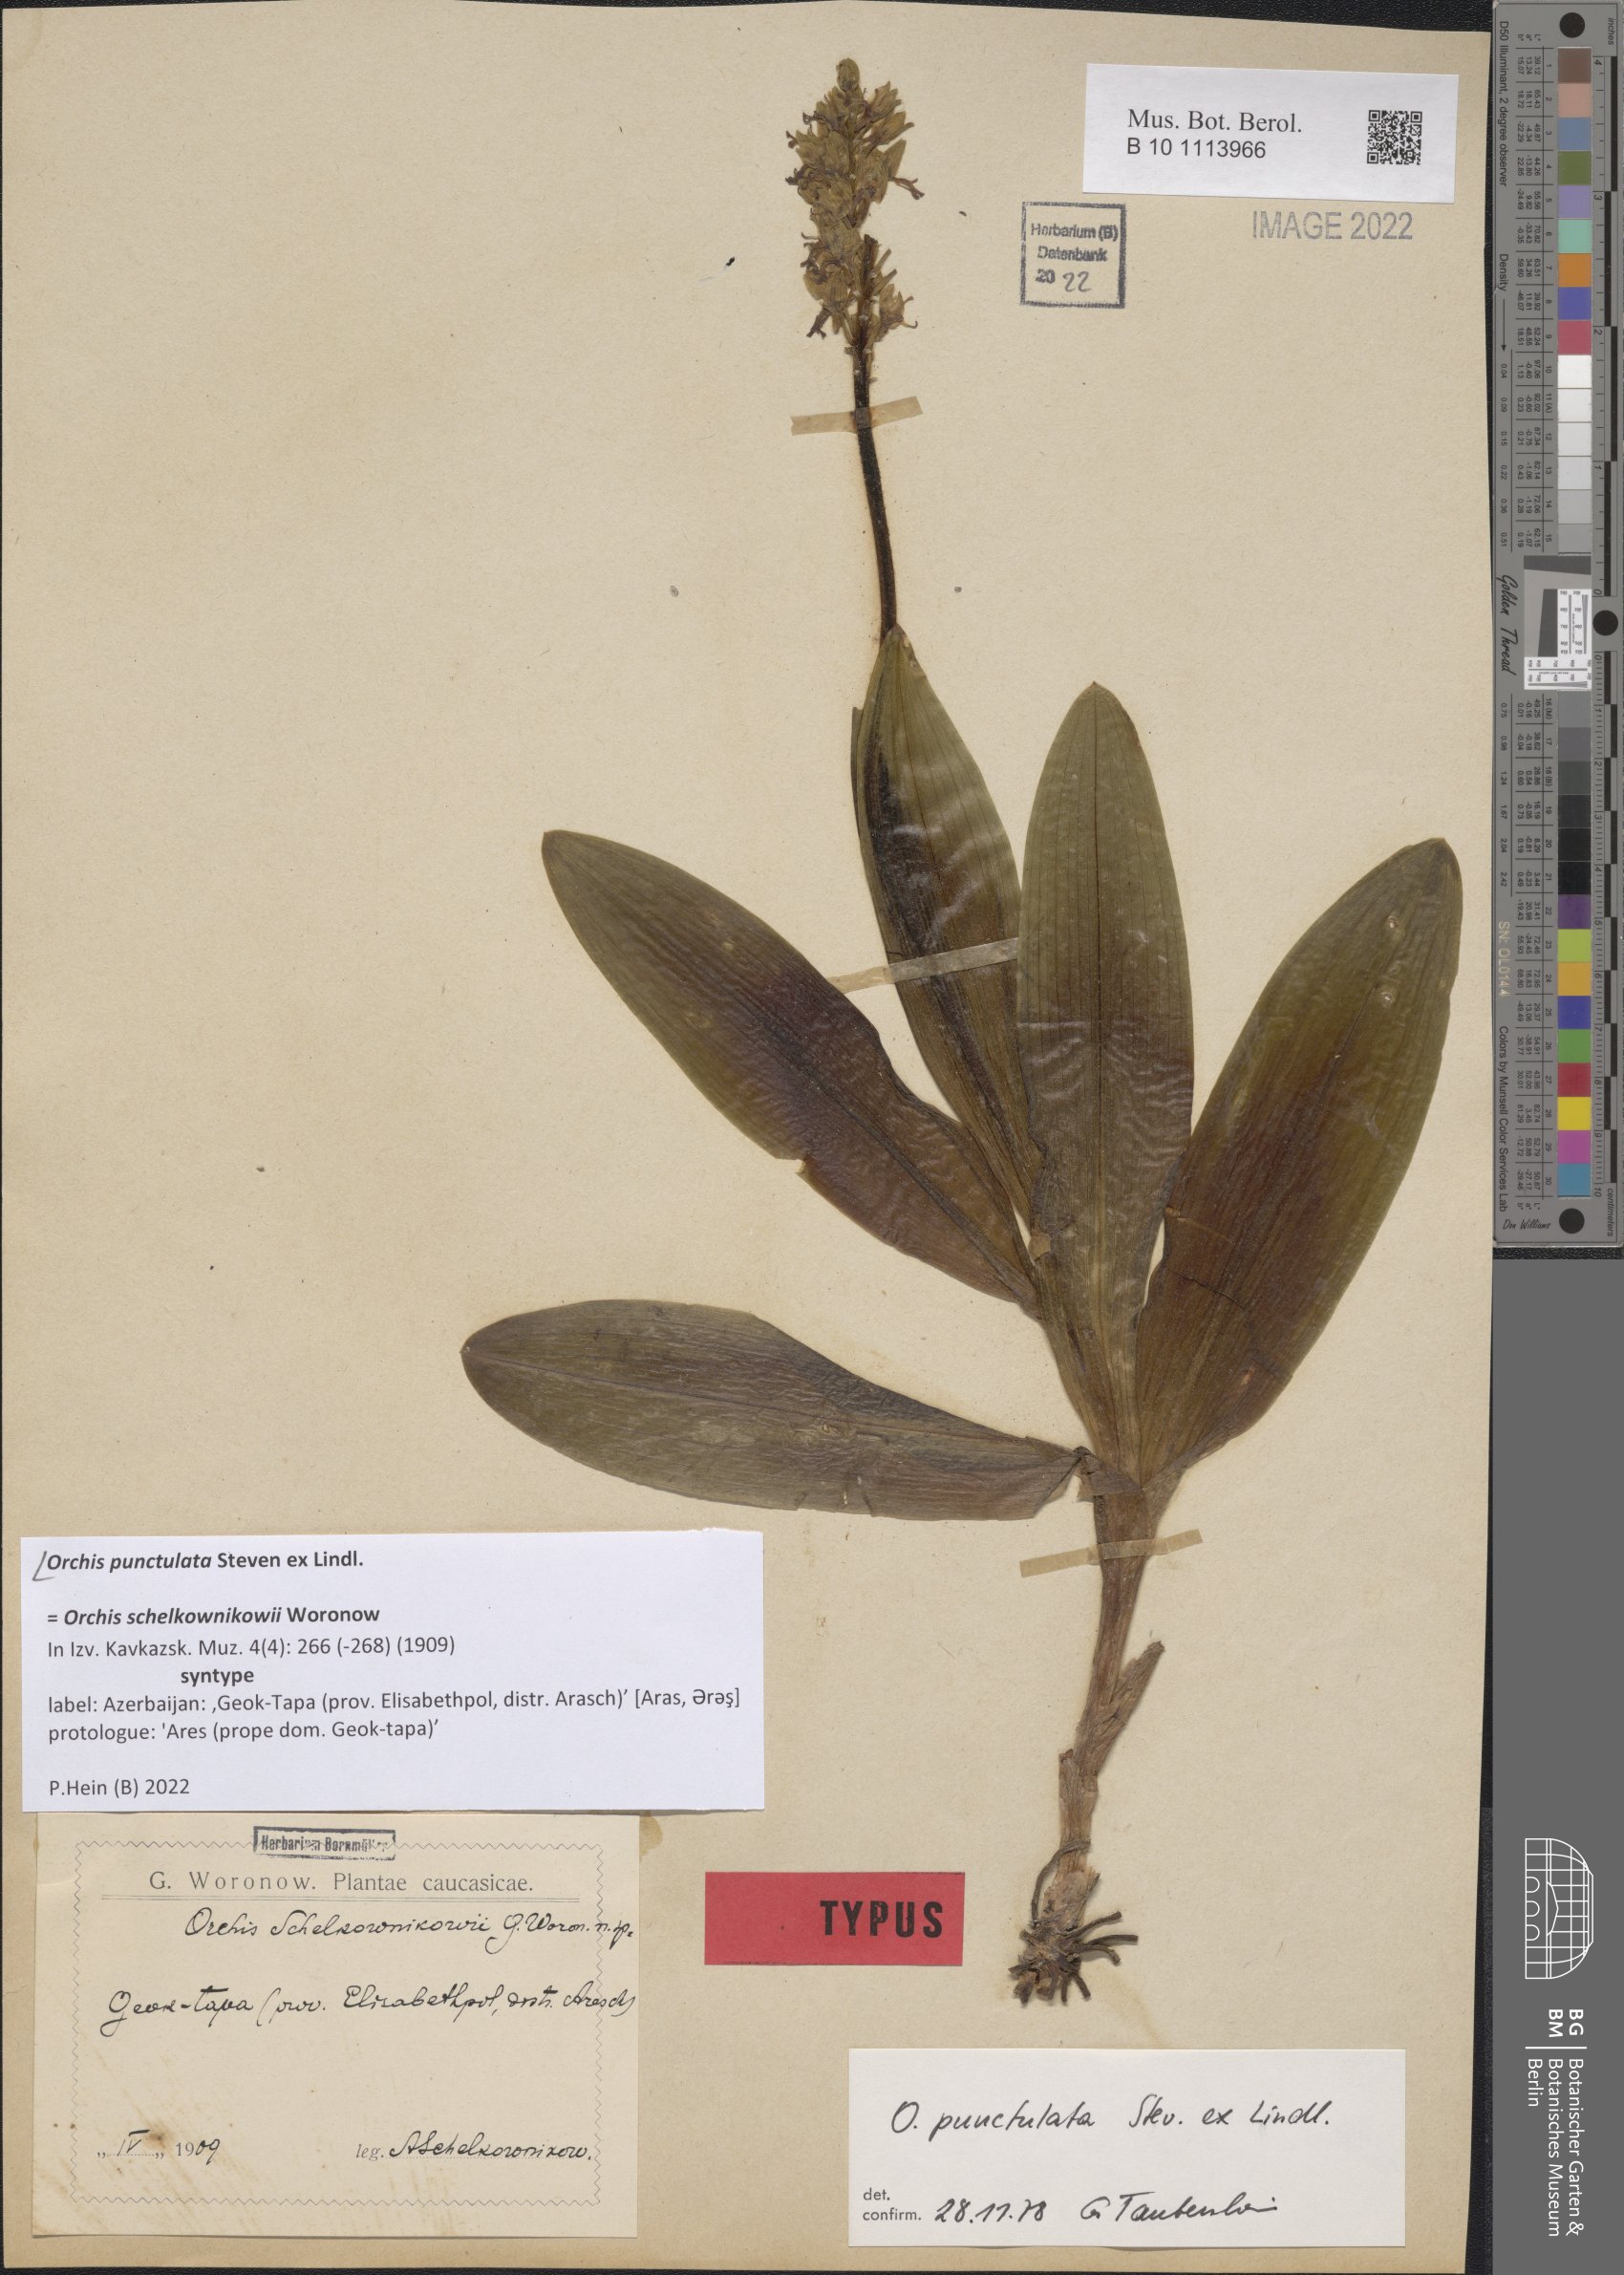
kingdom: Plantae
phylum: Tracheophyta
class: Liliopsida
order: Asparagales
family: Orchidaceae
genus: Orchis
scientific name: Orchis punctulata
